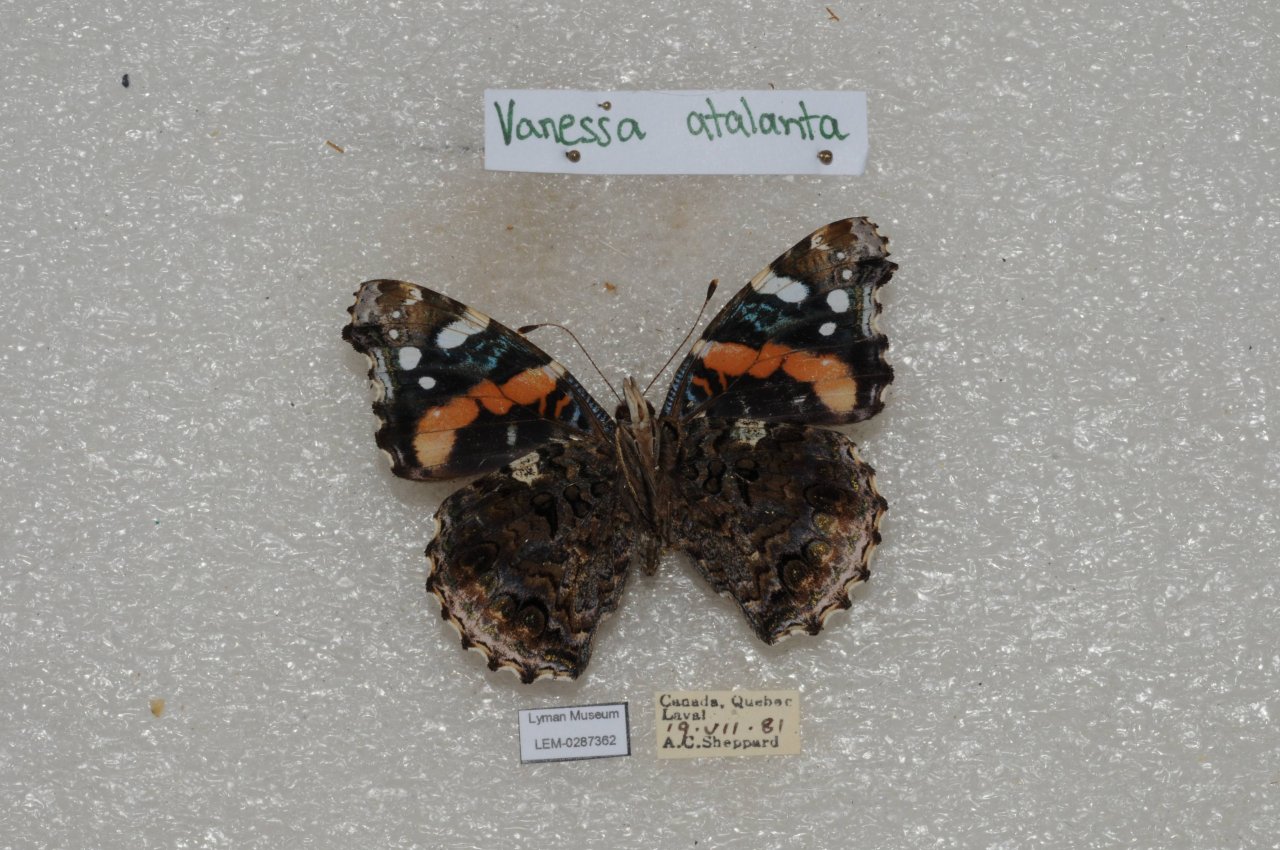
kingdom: Animalia
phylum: Arthropoda
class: Insecta
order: Lepidoptera
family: Nymphalidae
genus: Vanessa
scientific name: Vanessa atalanta
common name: Red Admiral
